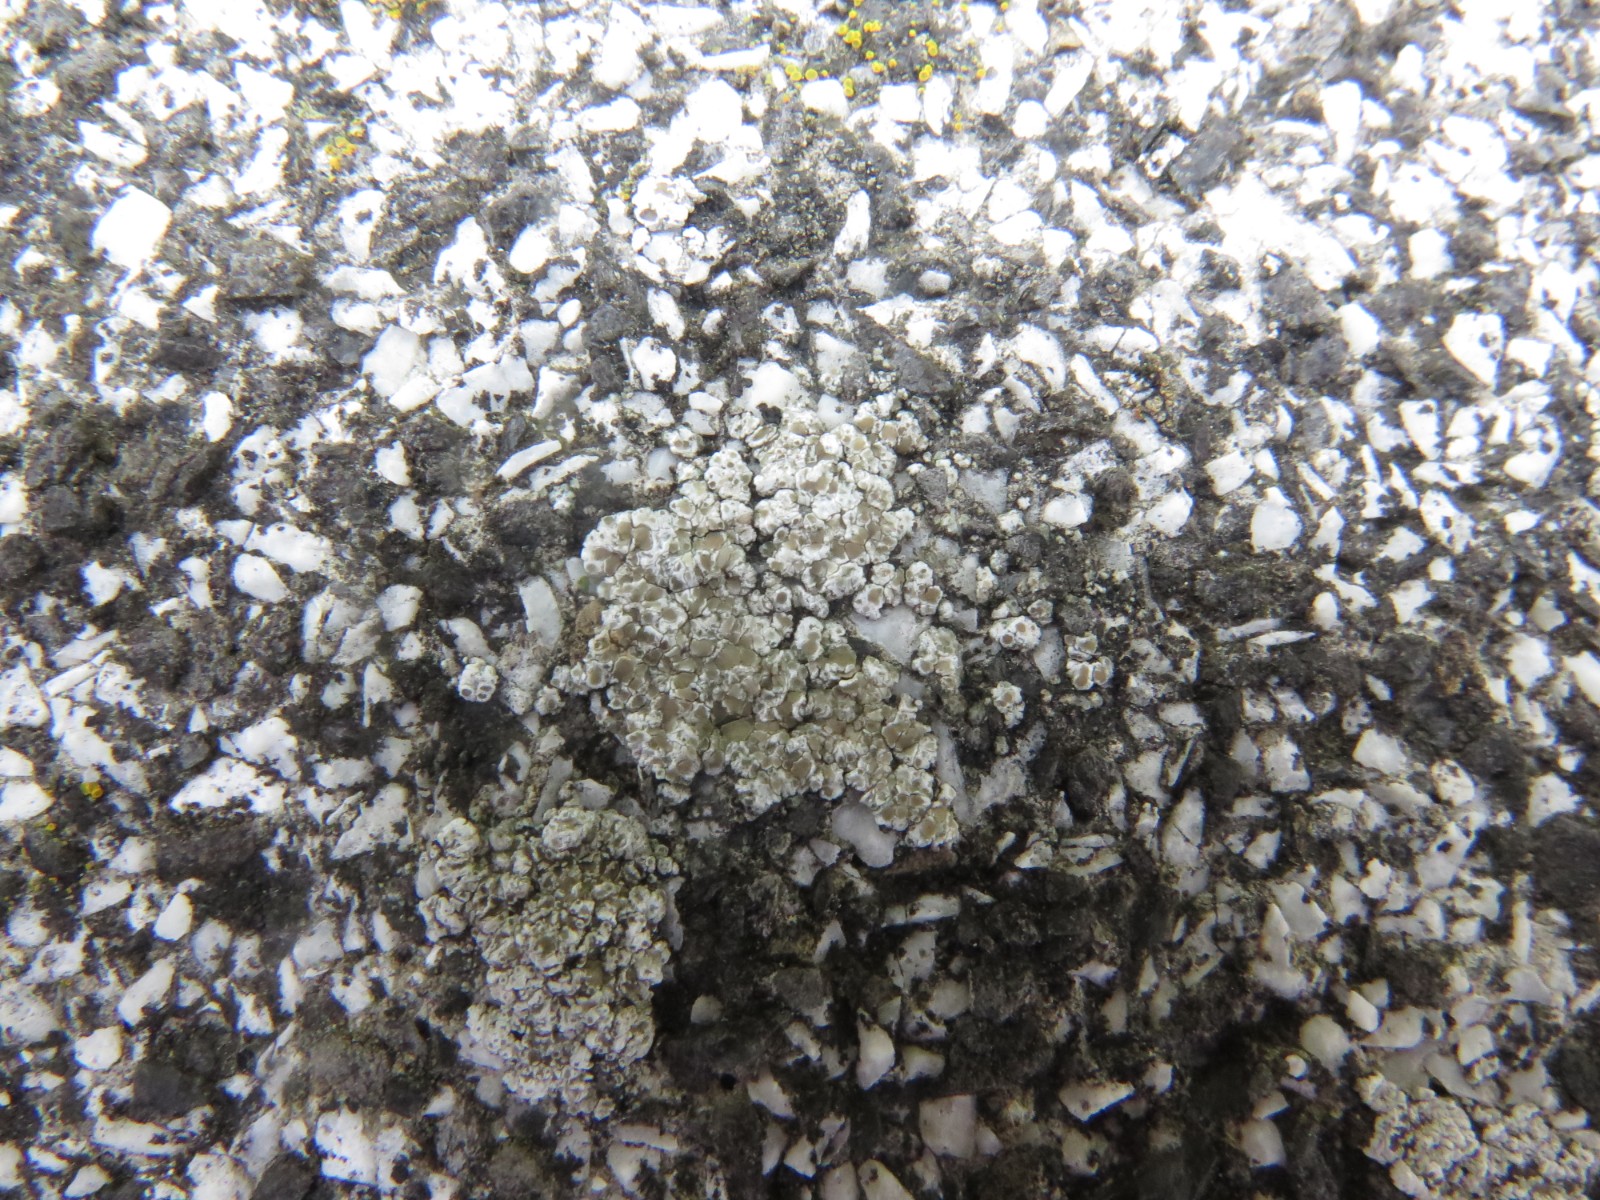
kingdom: Fungi
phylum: Ascomycota
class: Lecanoromycetes
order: Lecanorales
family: Lecanoraceae
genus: Polyozosia
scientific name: Polyozosia albescens
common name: cement-kantskivelav
